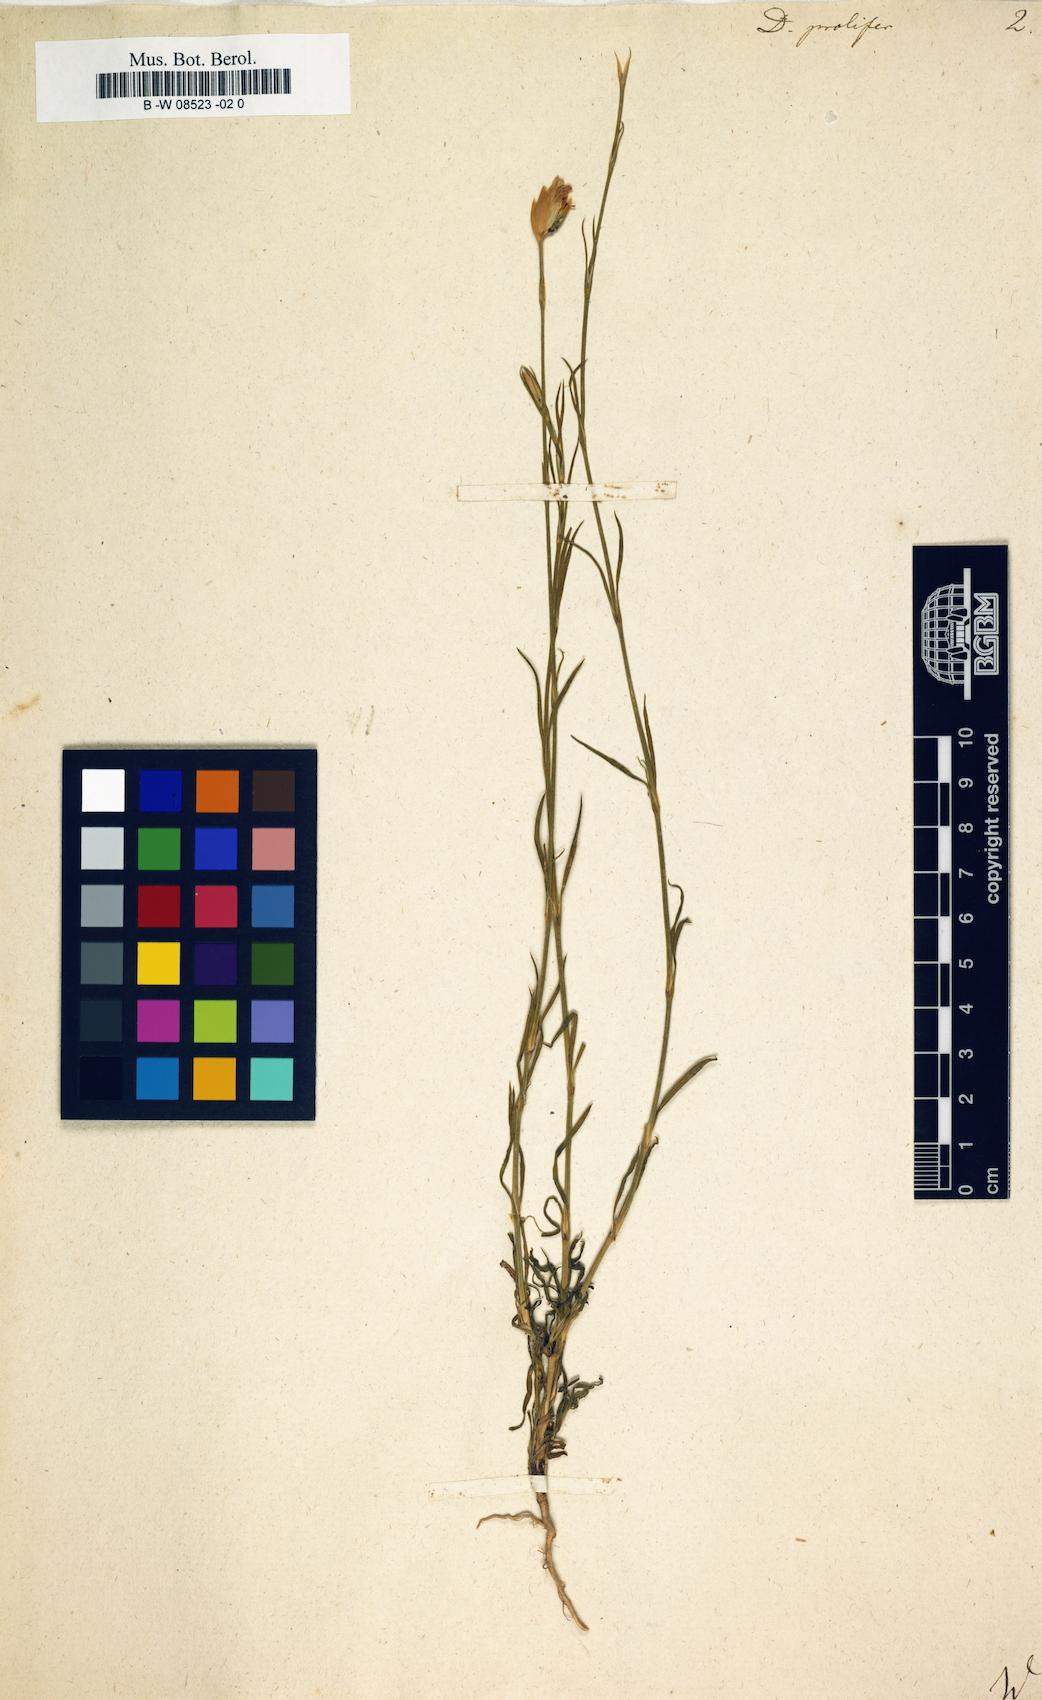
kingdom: Plantae
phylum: Tracheophyta
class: Magnoliopsida
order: Caryophyllales
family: Caryophyllaceae
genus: Dianthus
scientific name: Dianthus prolifer
